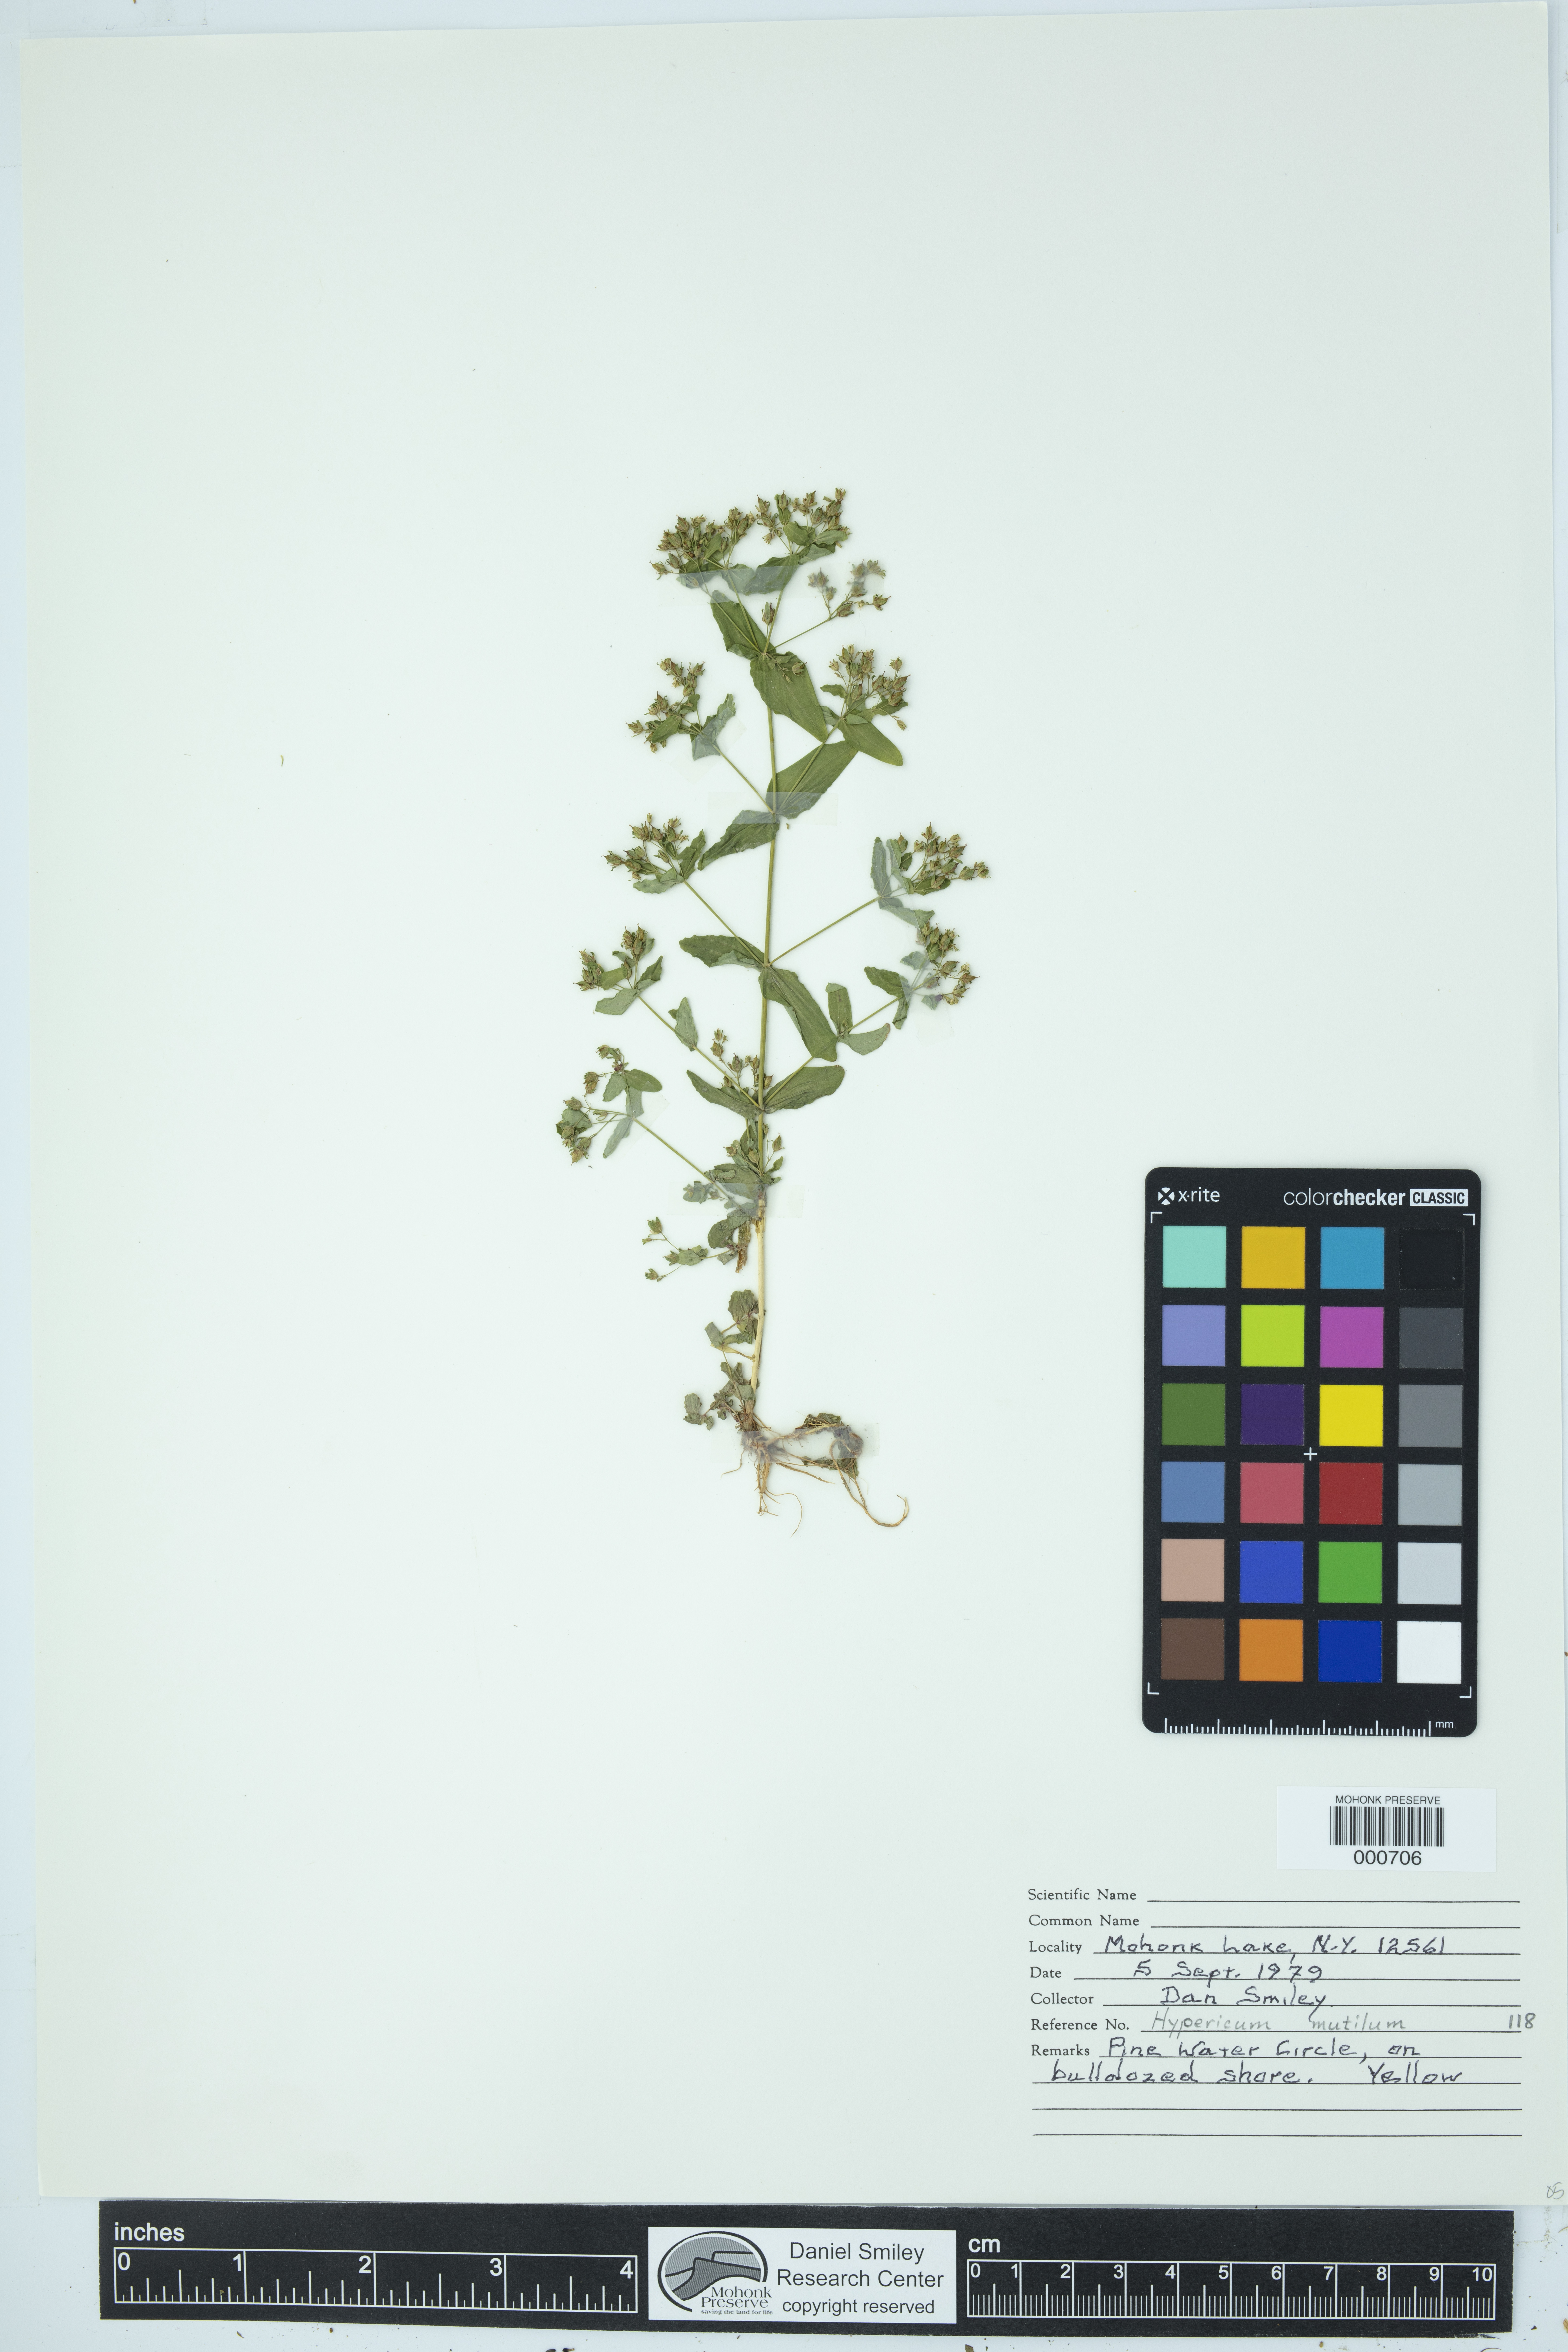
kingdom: Plantae
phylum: Tracheophyta
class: Magnoliopsida
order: Malpighiales
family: Hypericaceae
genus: Hypericum
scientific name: Hypericum mutilum
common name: Dwarf st. john's-wort
